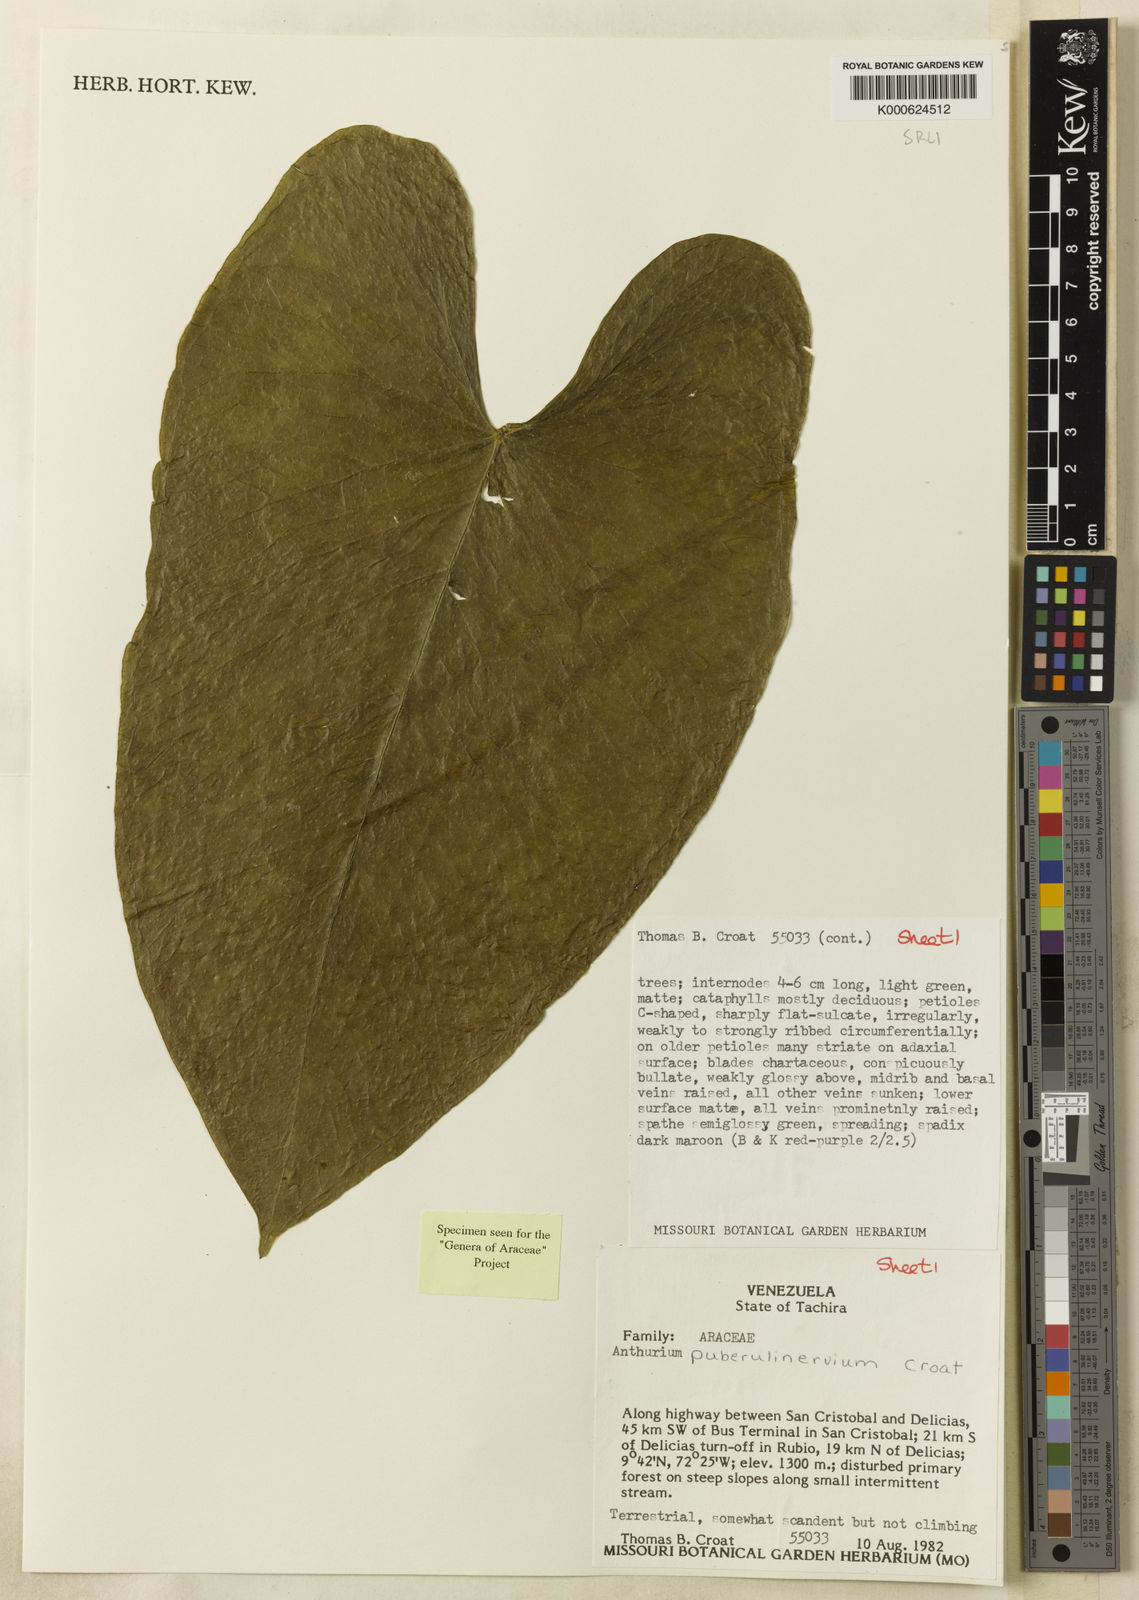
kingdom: Plantae
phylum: Tracheophyta
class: Liliopsida
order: Alismatales
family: Araceae
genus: Anthurium
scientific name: Anthurium puberulinervium
